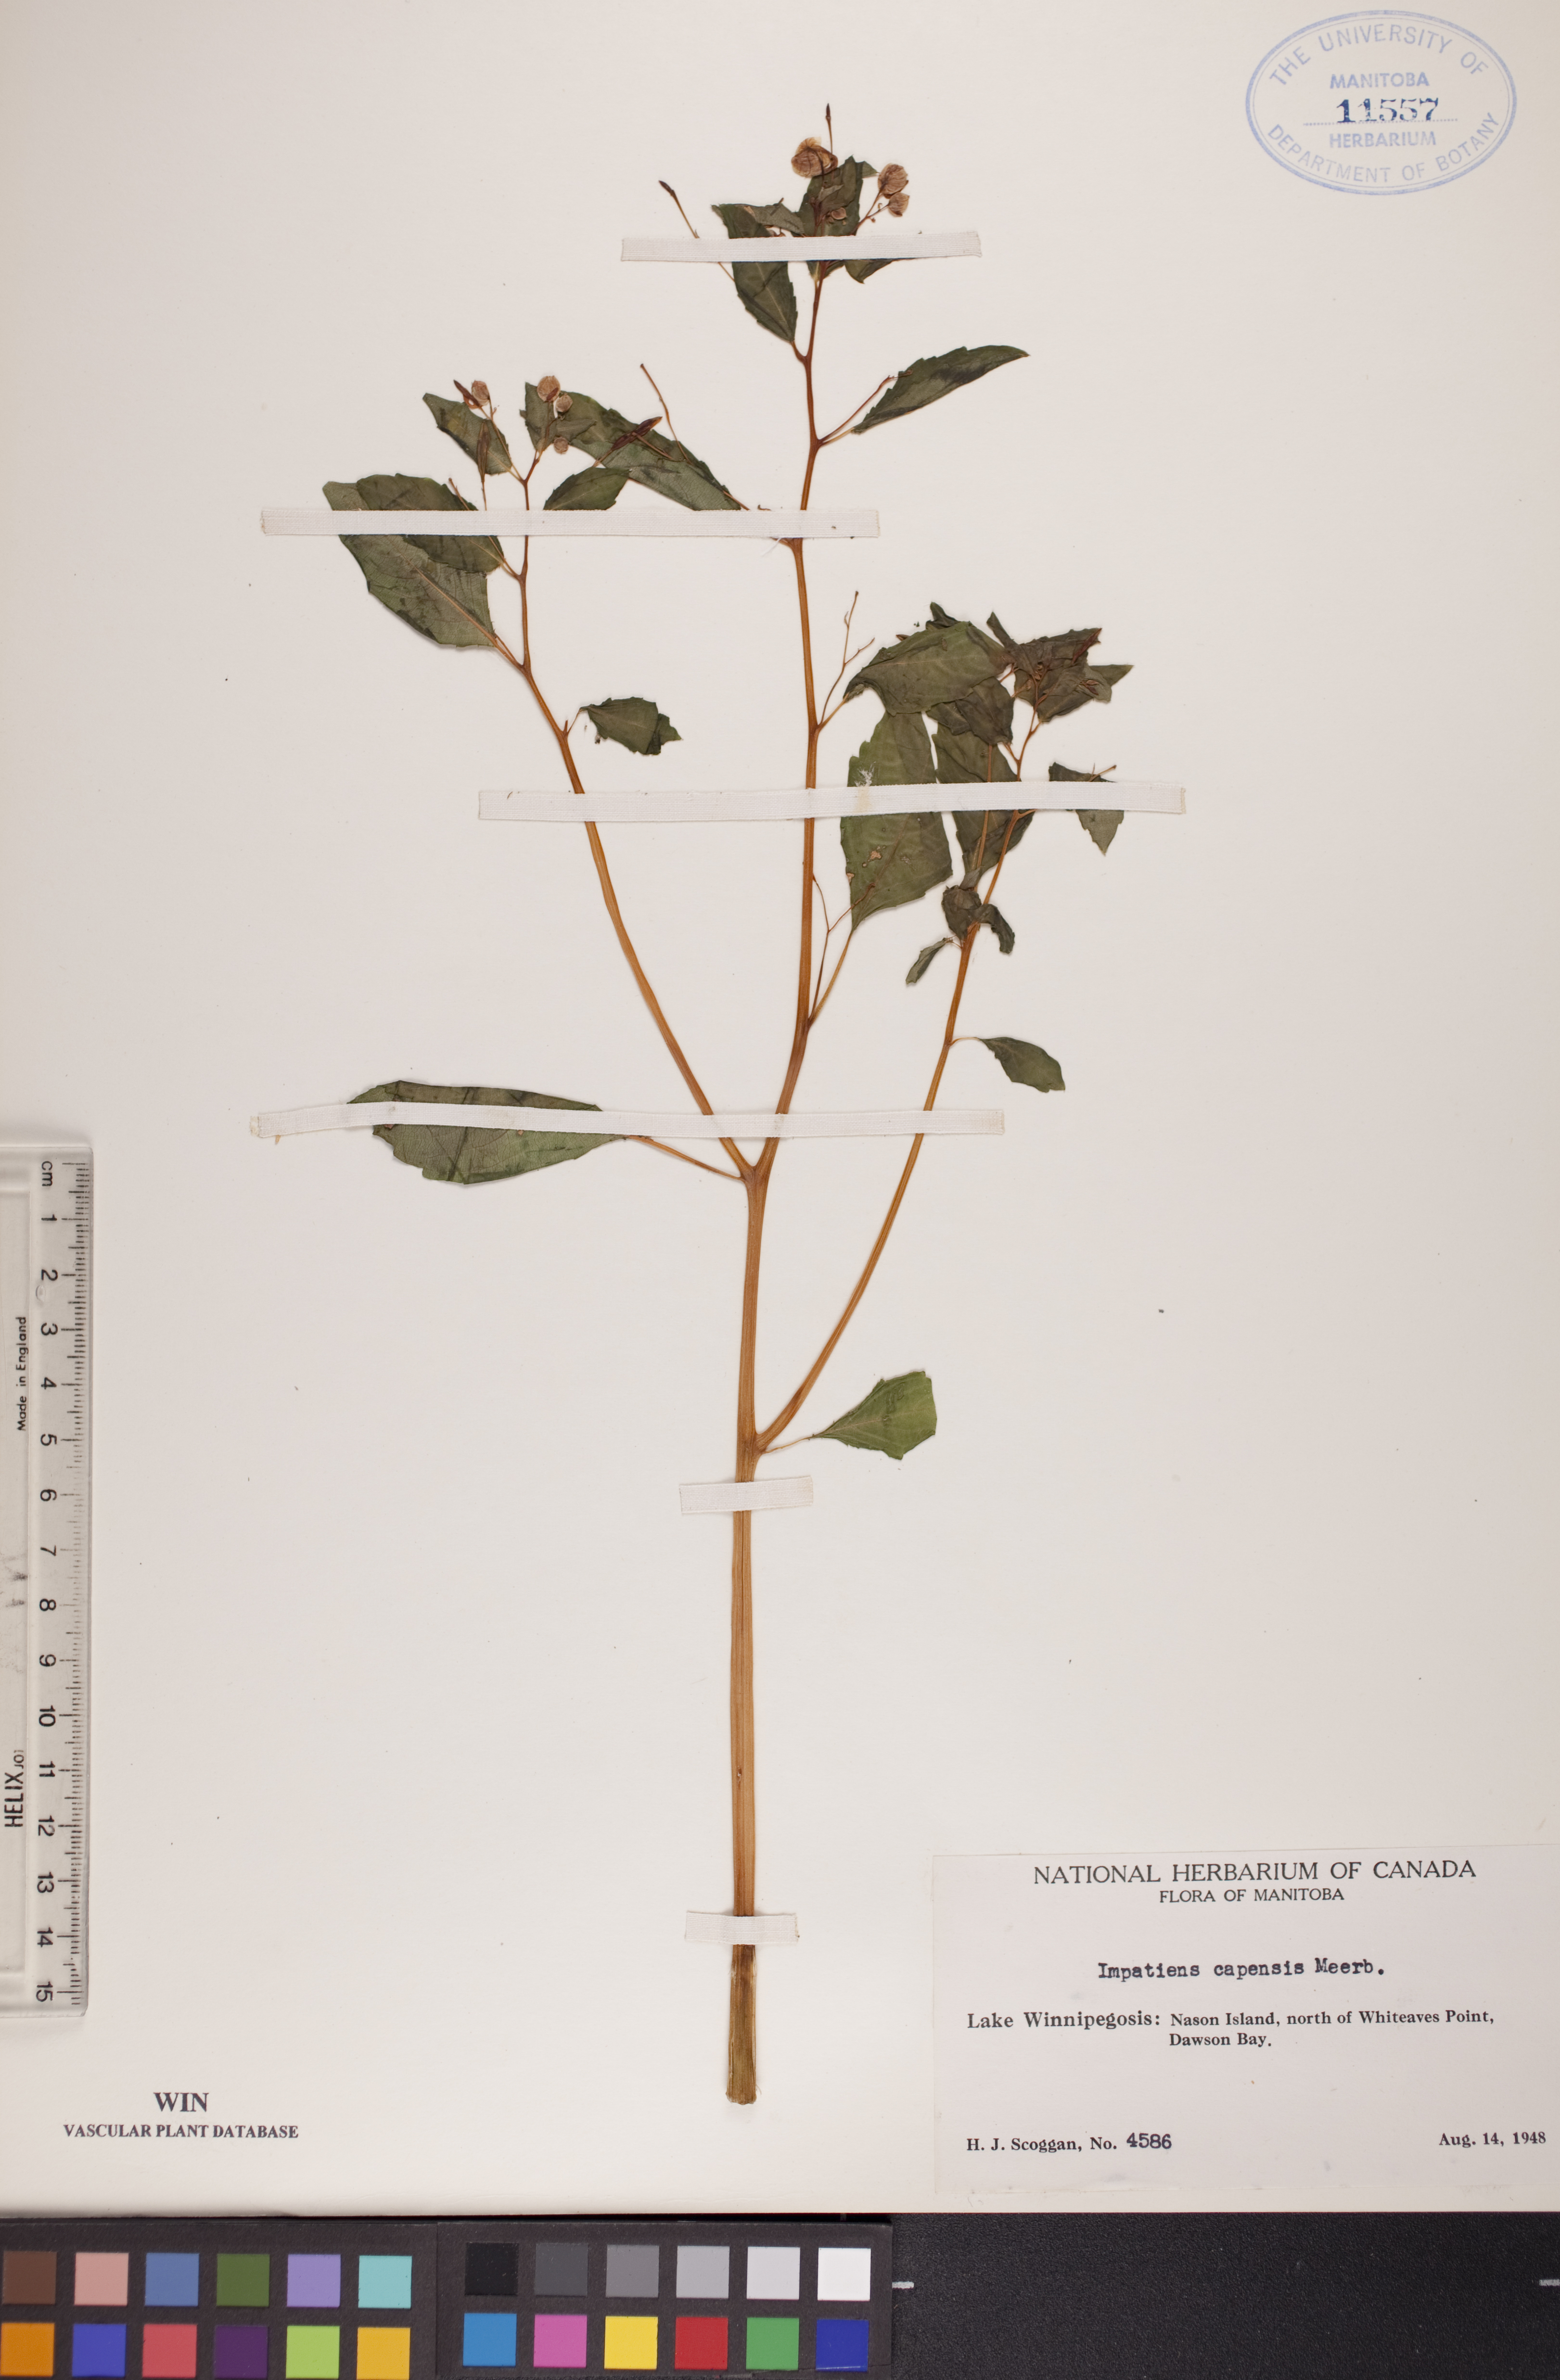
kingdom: Plantae
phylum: Tracheophyta
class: Magnoliopsida
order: Ericales
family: Balsaminaceae
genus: Impatiens
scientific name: Impatiens capensis
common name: Orange balsam
